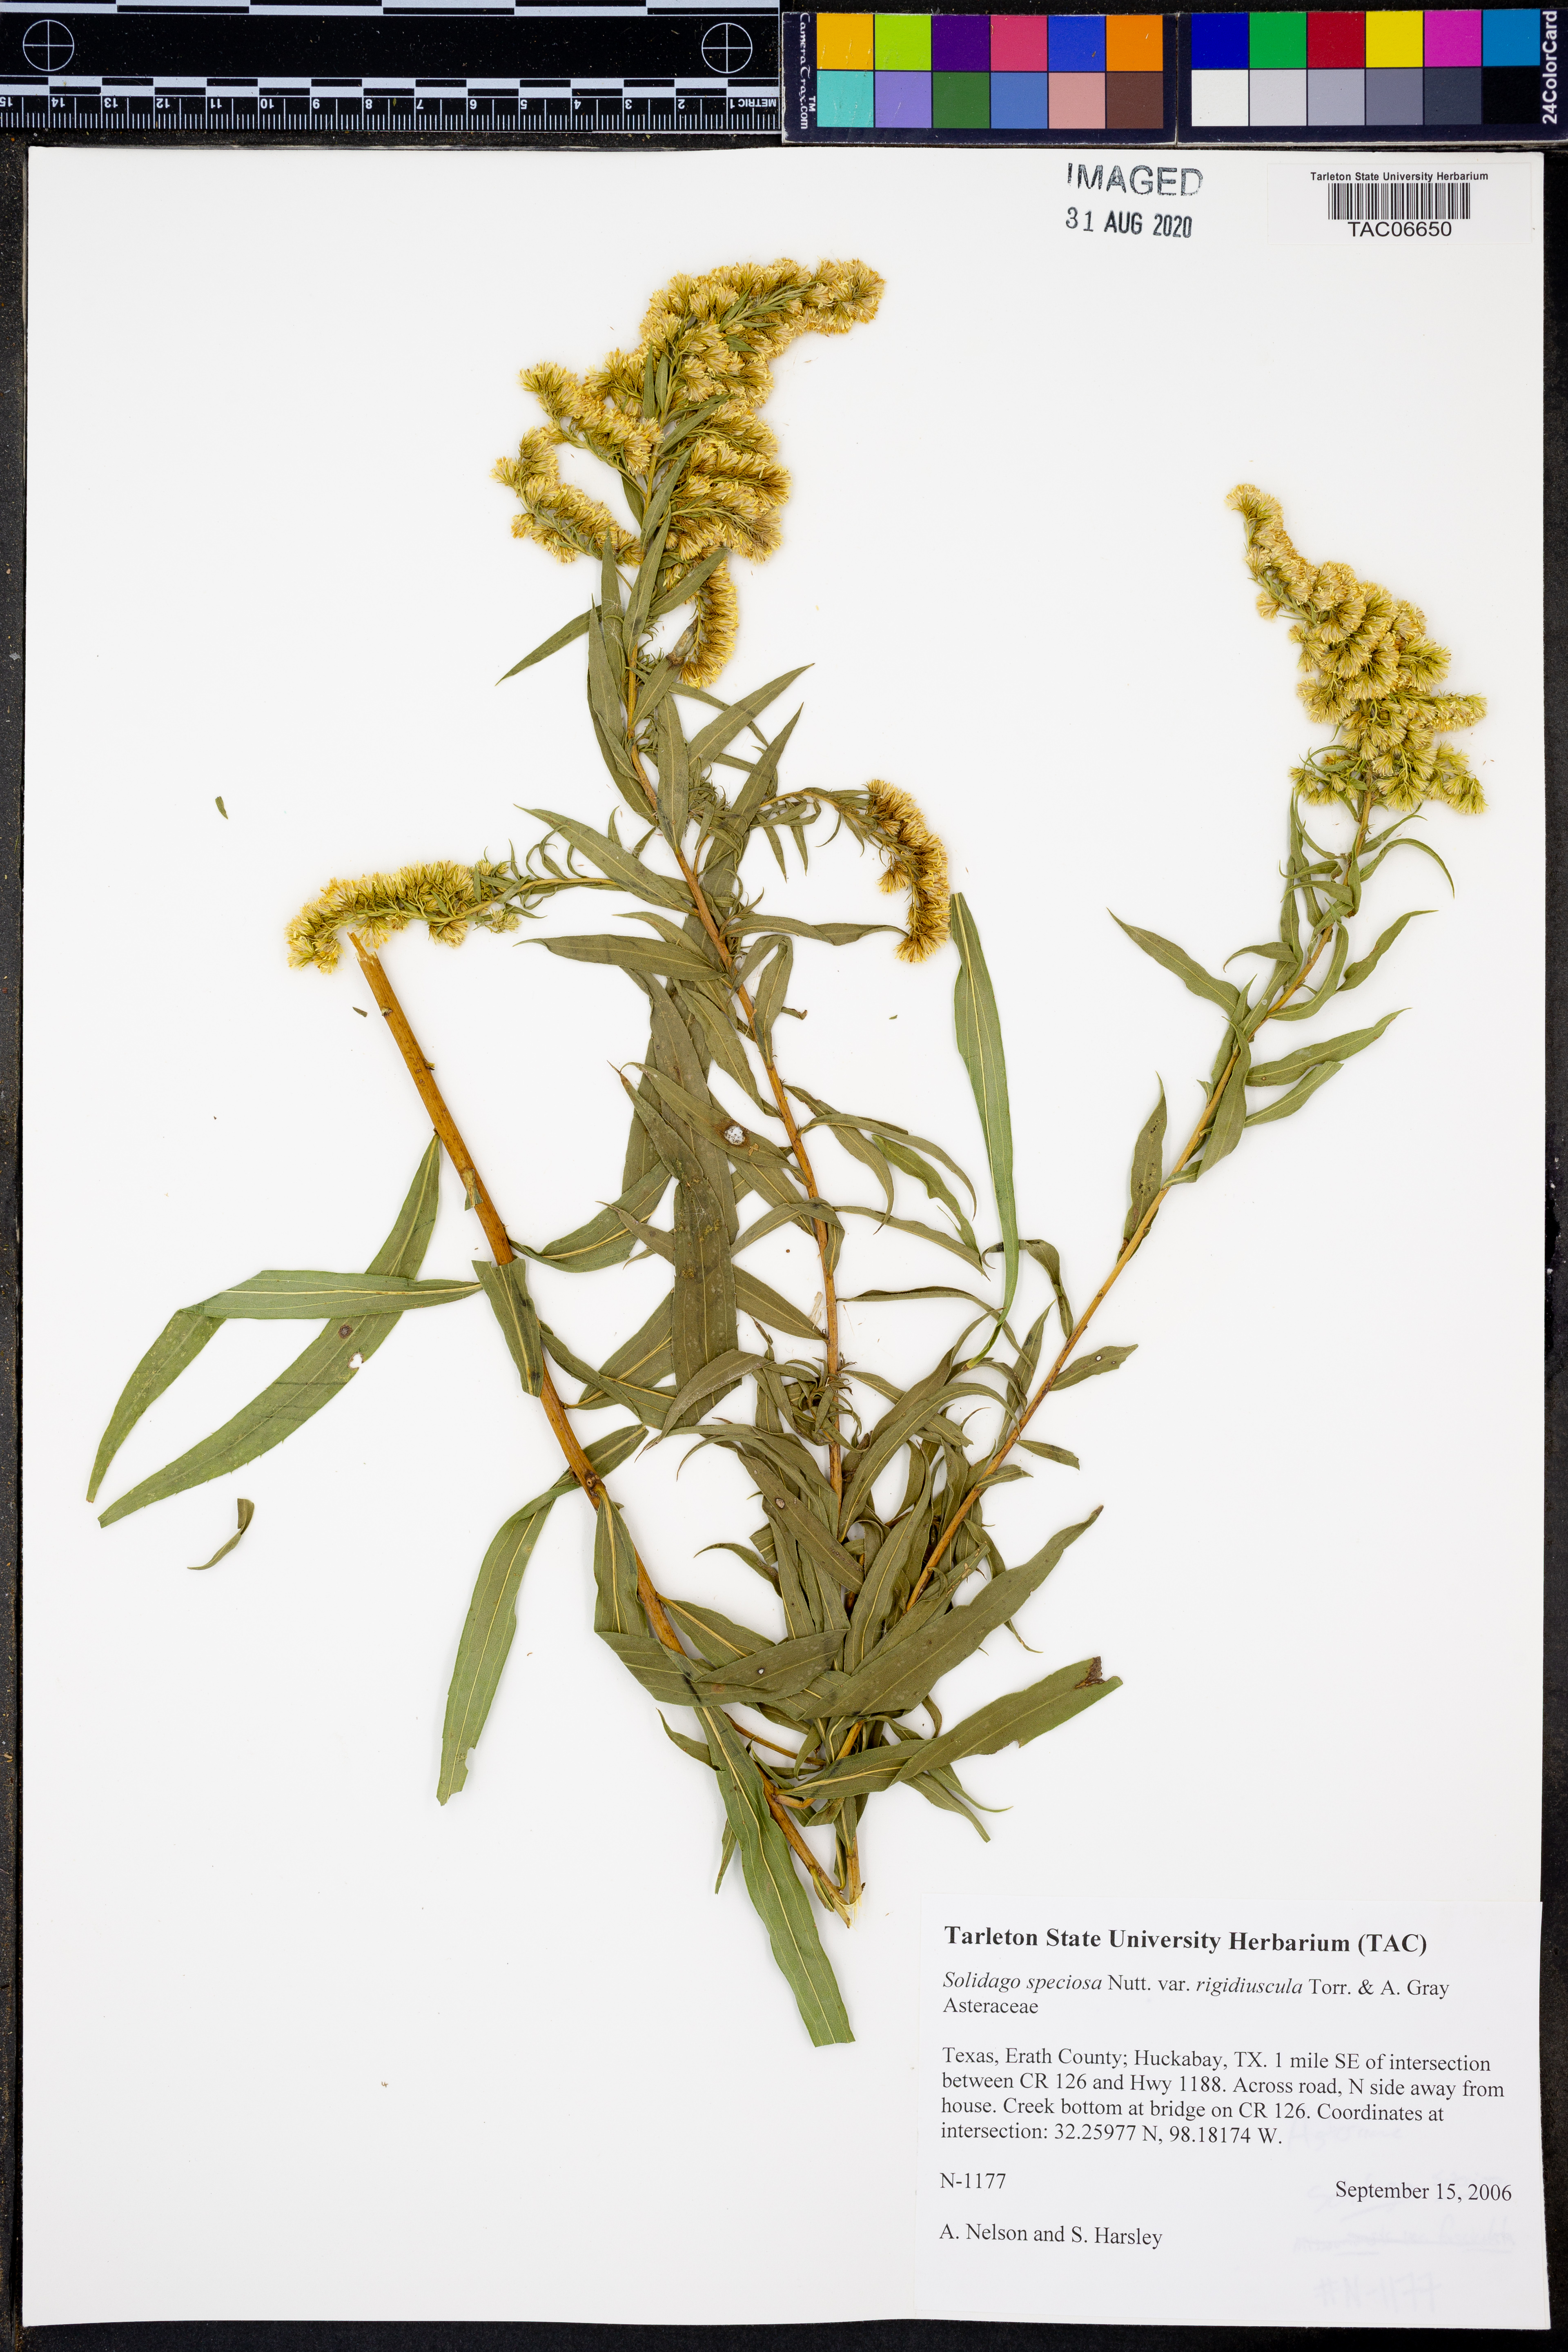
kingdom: Plantae
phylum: Tracheophyta
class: Magnoliopsida
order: Asterales
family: Asteraceae
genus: Solidago
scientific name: Solidago rigidiuscula
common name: Stiff-leaved showy goldenrod
